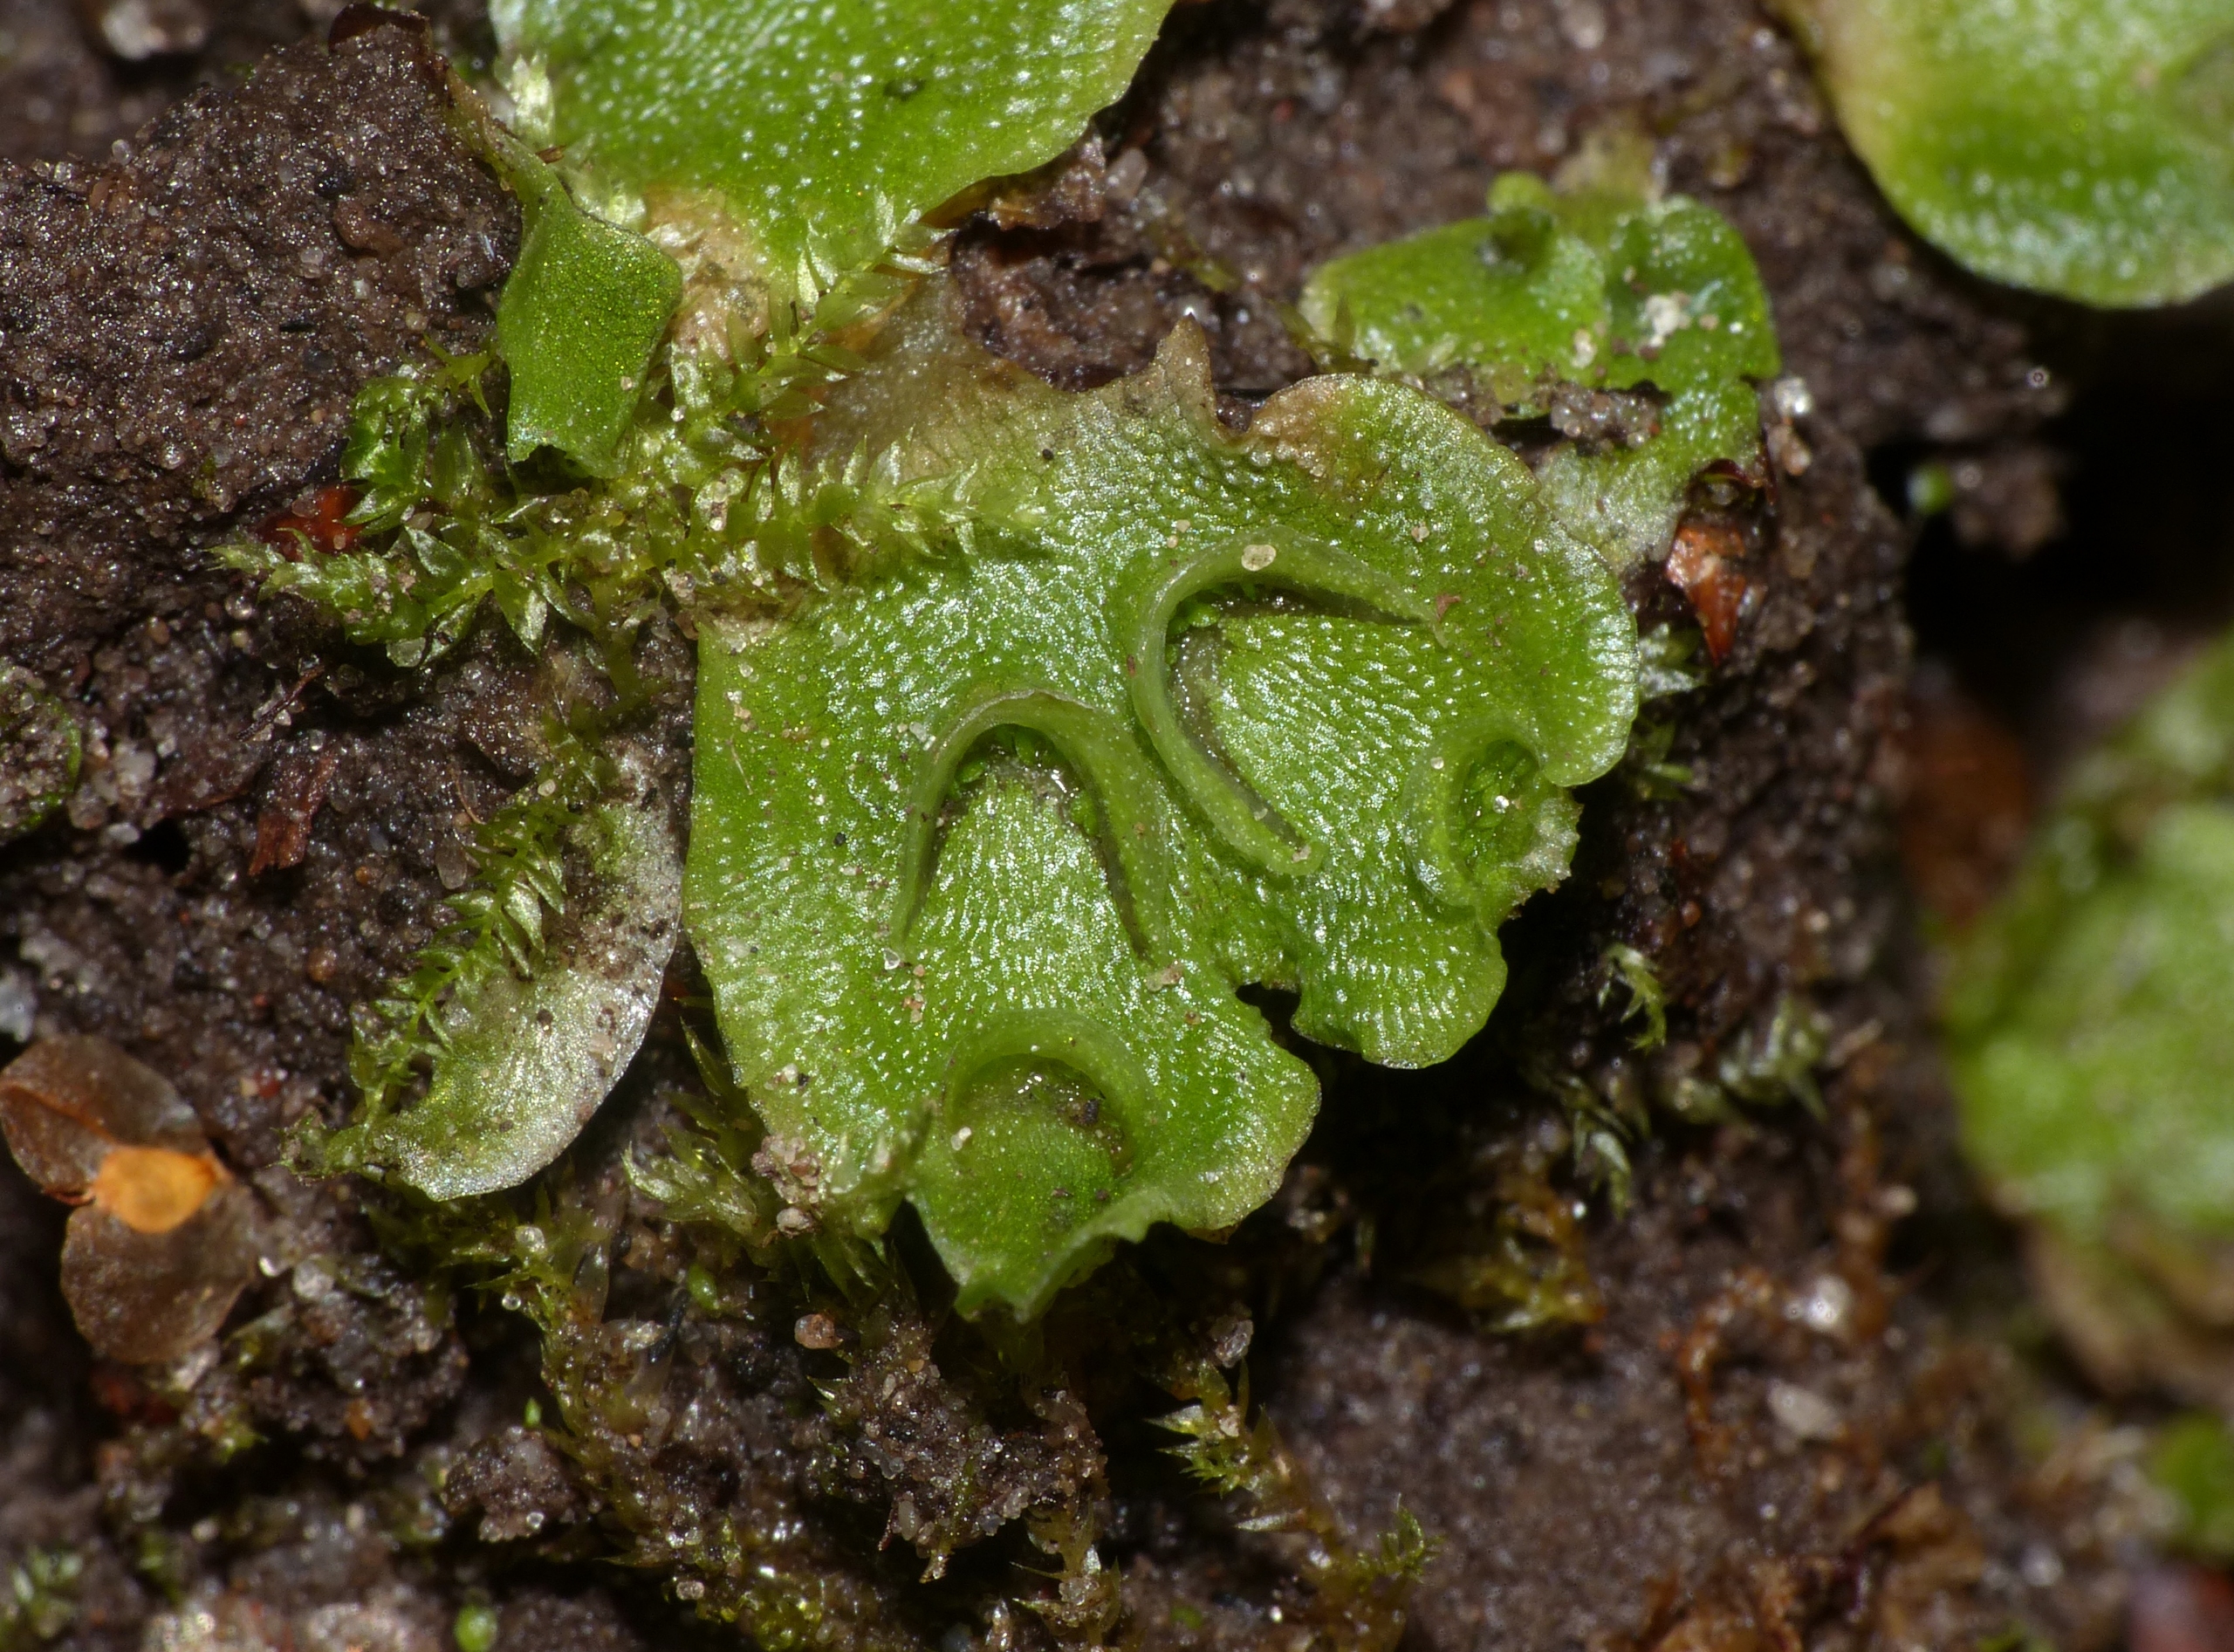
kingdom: Plantae
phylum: Marchantiophyta
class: Marchantiopsida
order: Lunulariales
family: Lunulariaceae
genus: Lunularia
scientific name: Lunularia cruciata
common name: Almindelig månemos
